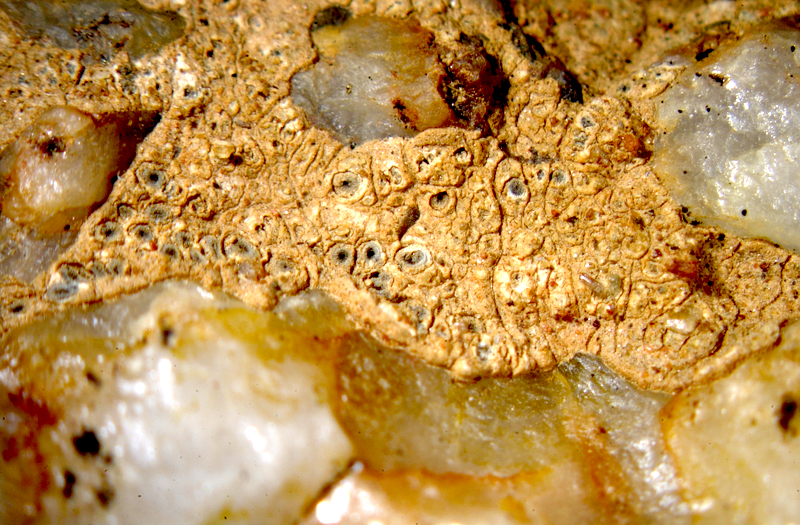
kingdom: Fungi
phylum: Ascomycota
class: Lecanoromycetes
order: Ostropales
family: Graphidaceae
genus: Diploschistes
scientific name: Diploschistes euganeus
